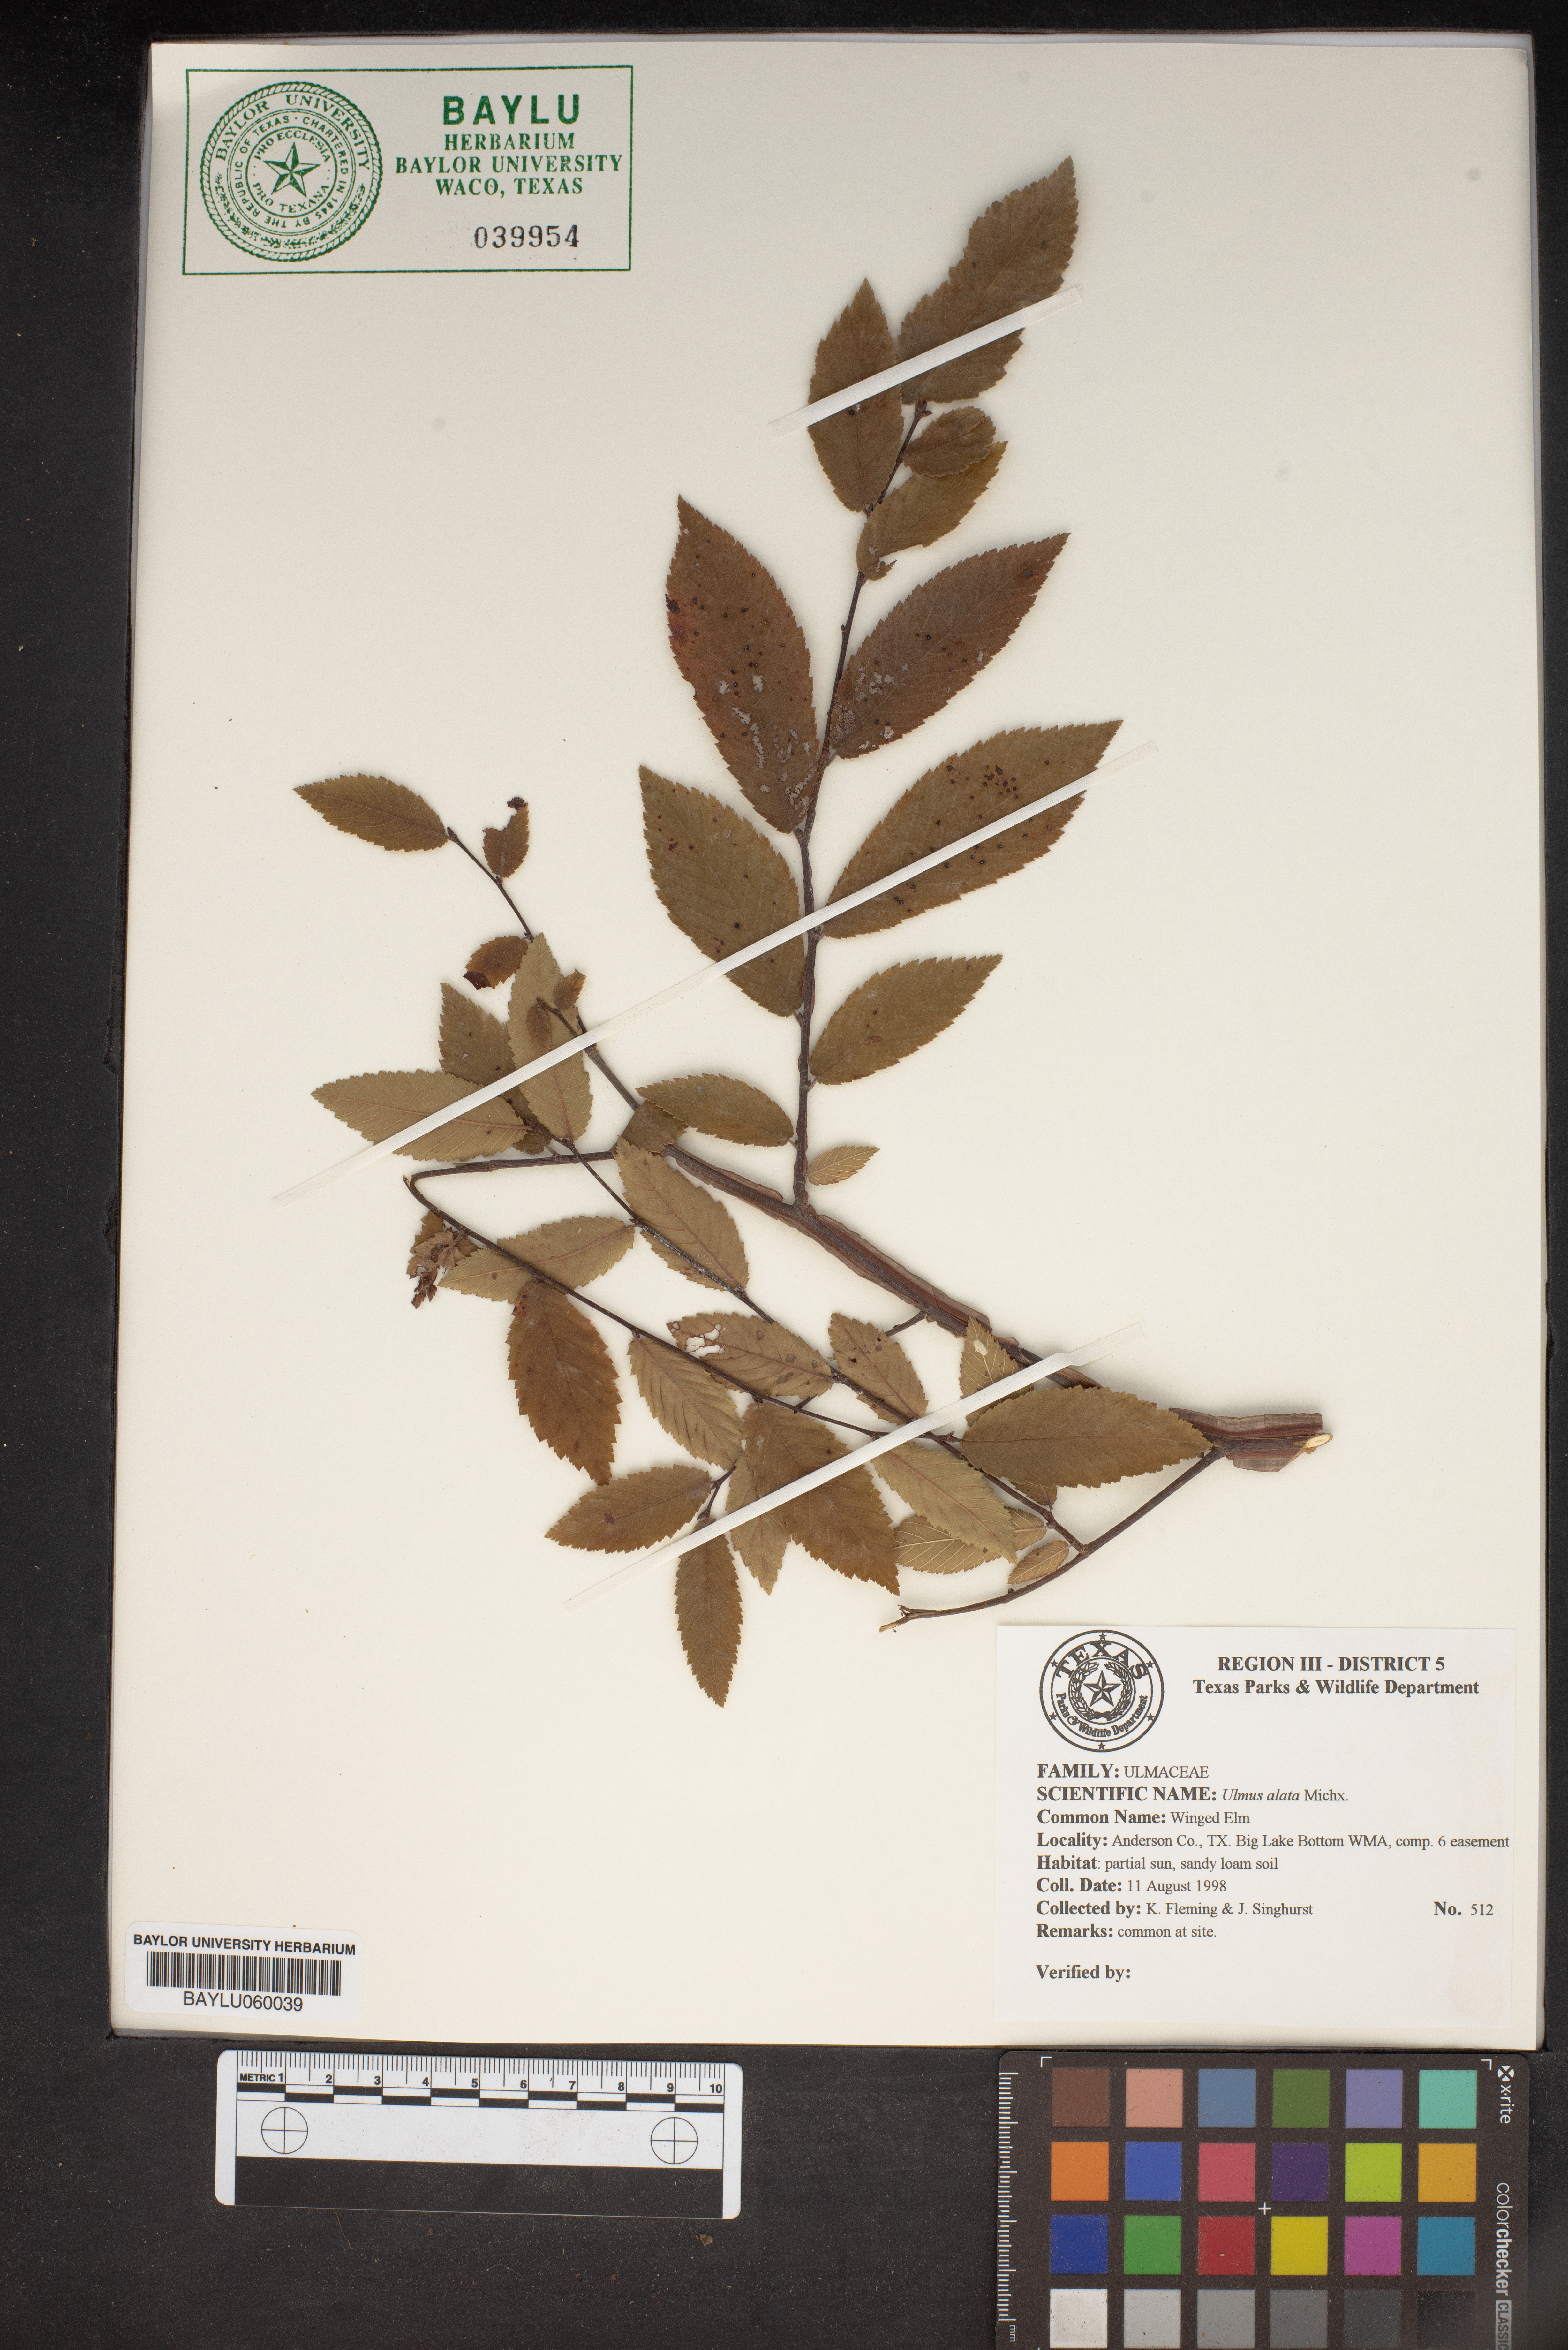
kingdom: Plantae
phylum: Tracheophyta
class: Magnoliopsida
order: Rosales
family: Ulmaceae
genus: Ulmus
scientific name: Ulmus alata
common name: Winged elm
